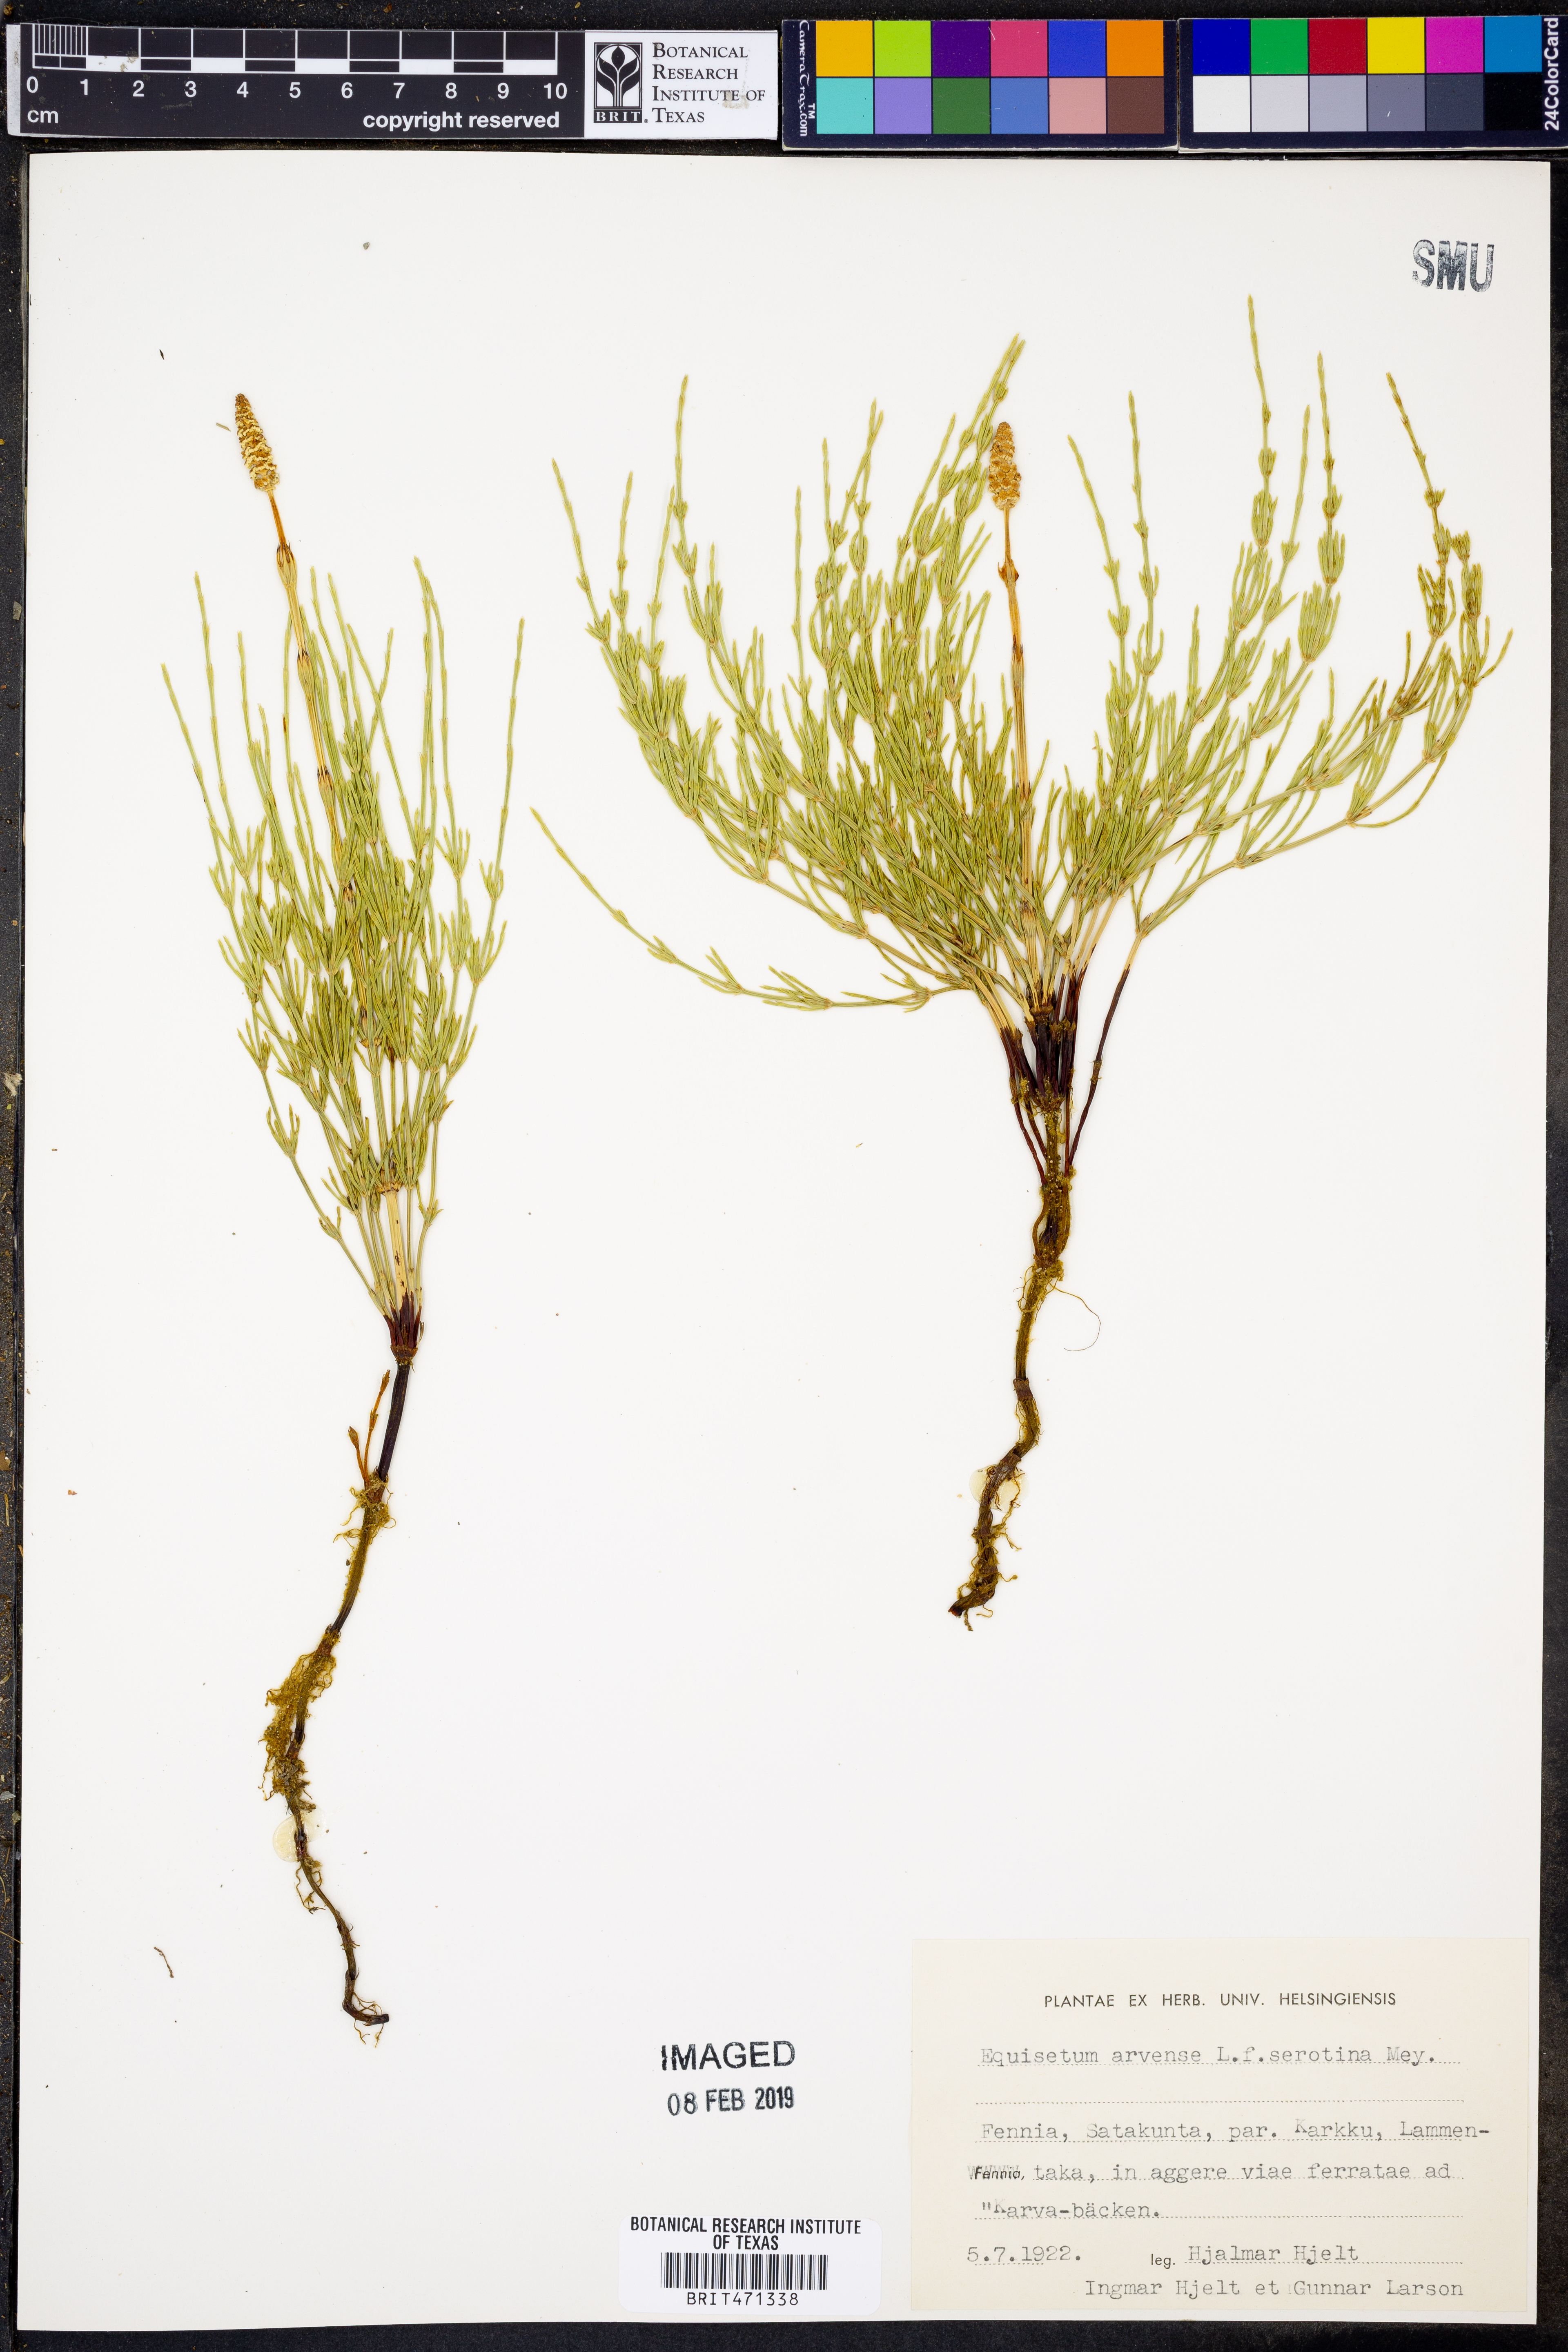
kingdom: Plantae
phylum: Tracheophyta
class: Polypodiopsida
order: Equisetales
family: Equisetaceae
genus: Equisetum
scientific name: Equisetum arvense
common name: Field horsetail
